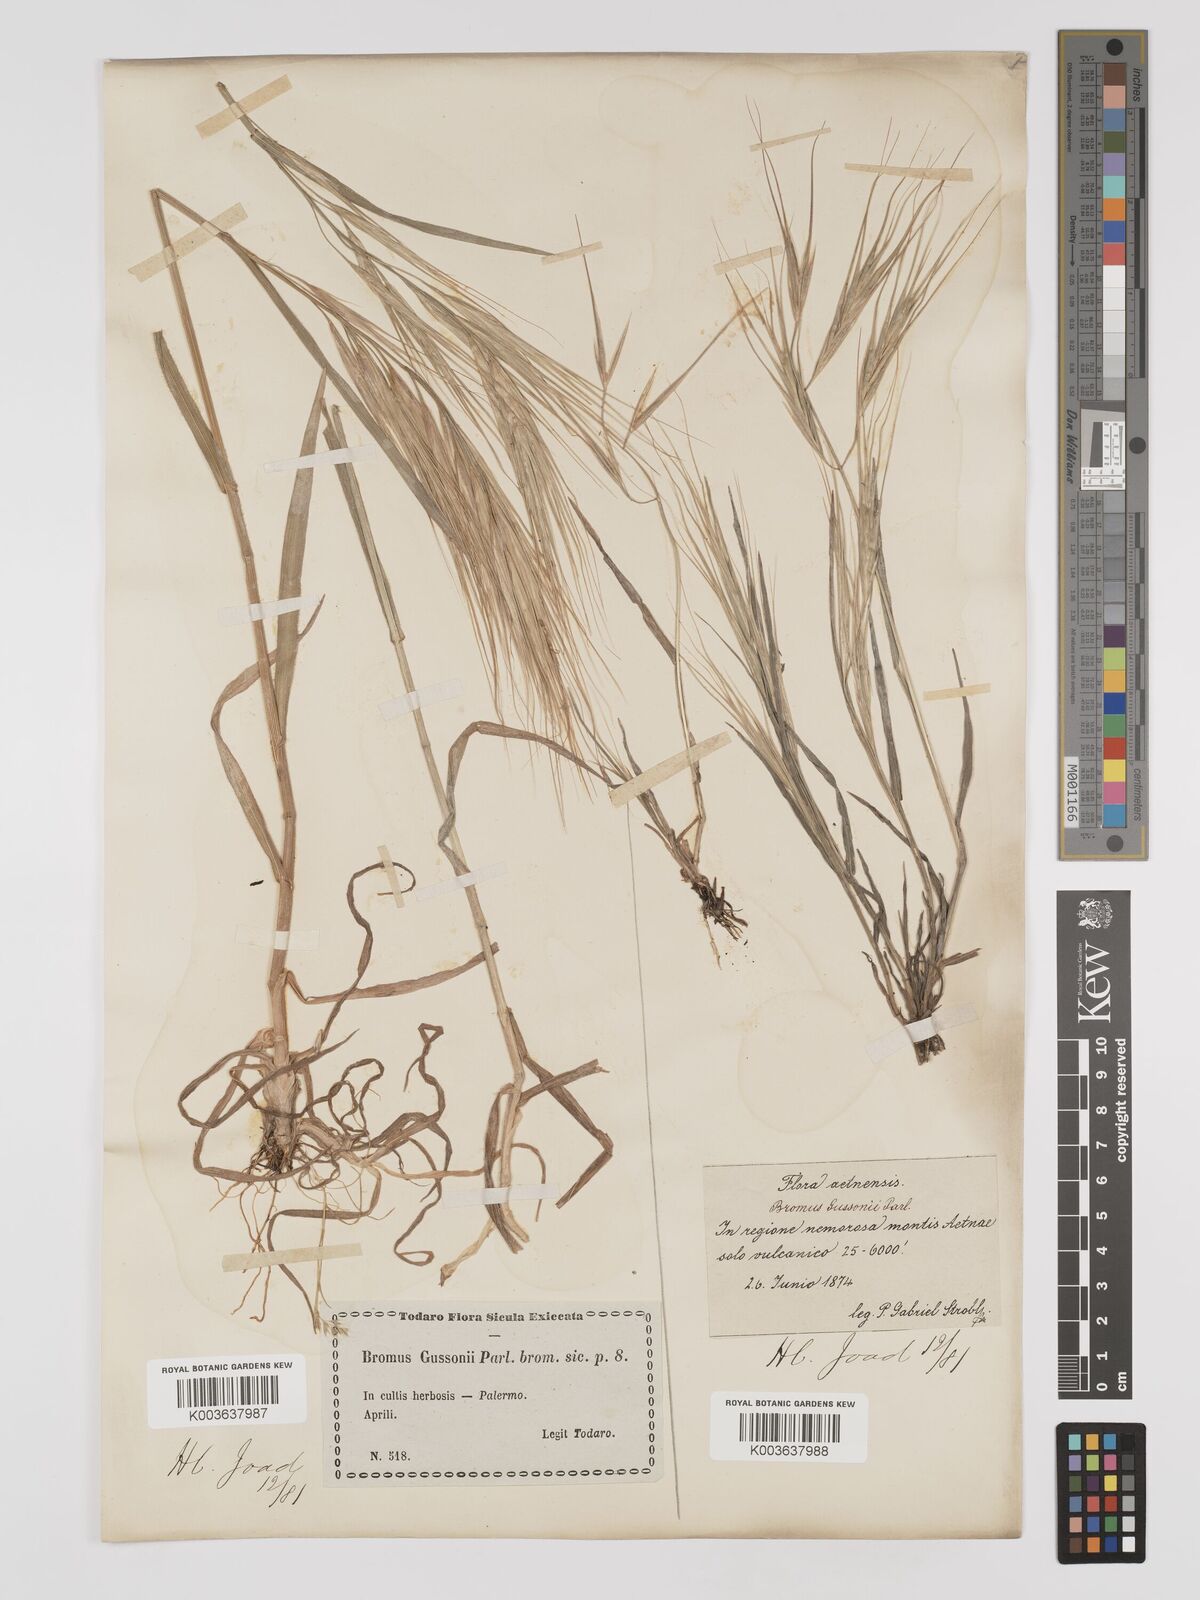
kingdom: Plantae
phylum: Tracheophyta
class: Liliopsida
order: Poales
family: Poaceae
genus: Bromus
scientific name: Bromus
